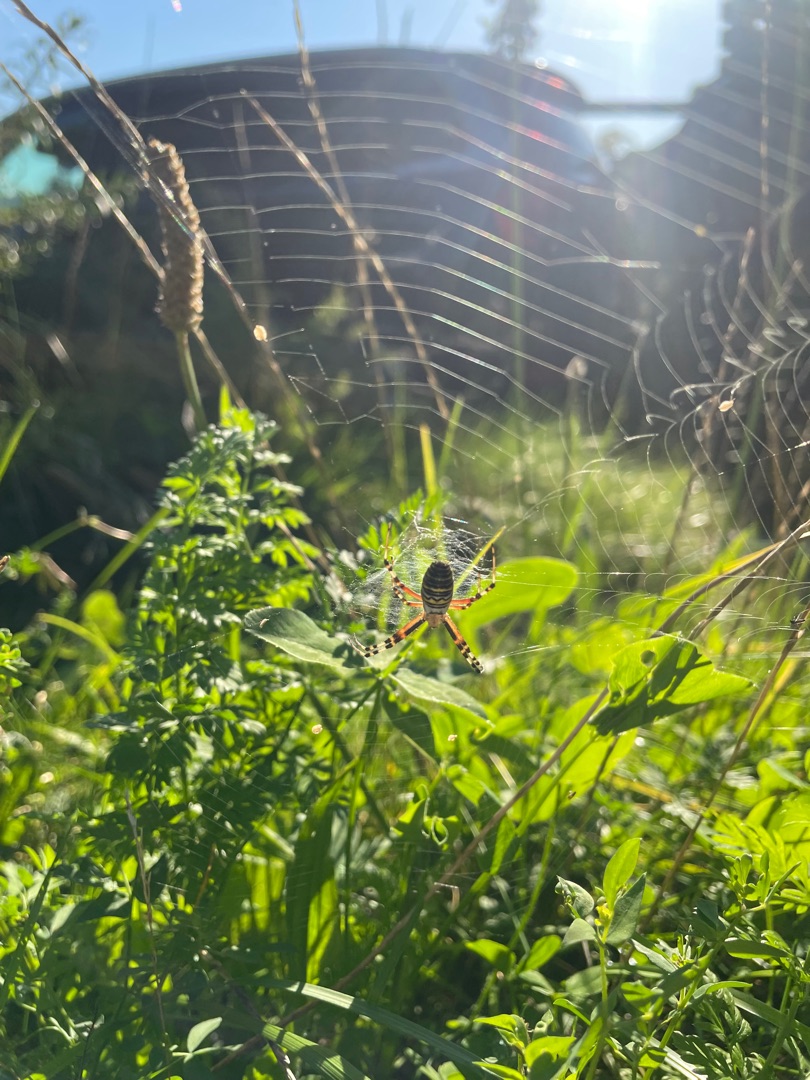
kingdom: Animalia
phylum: Arthropoda
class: Arachnida
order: Araneae
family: Araneidae
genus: Argiope
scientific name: Argiope bruennichi
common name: Hvepseedderkop
